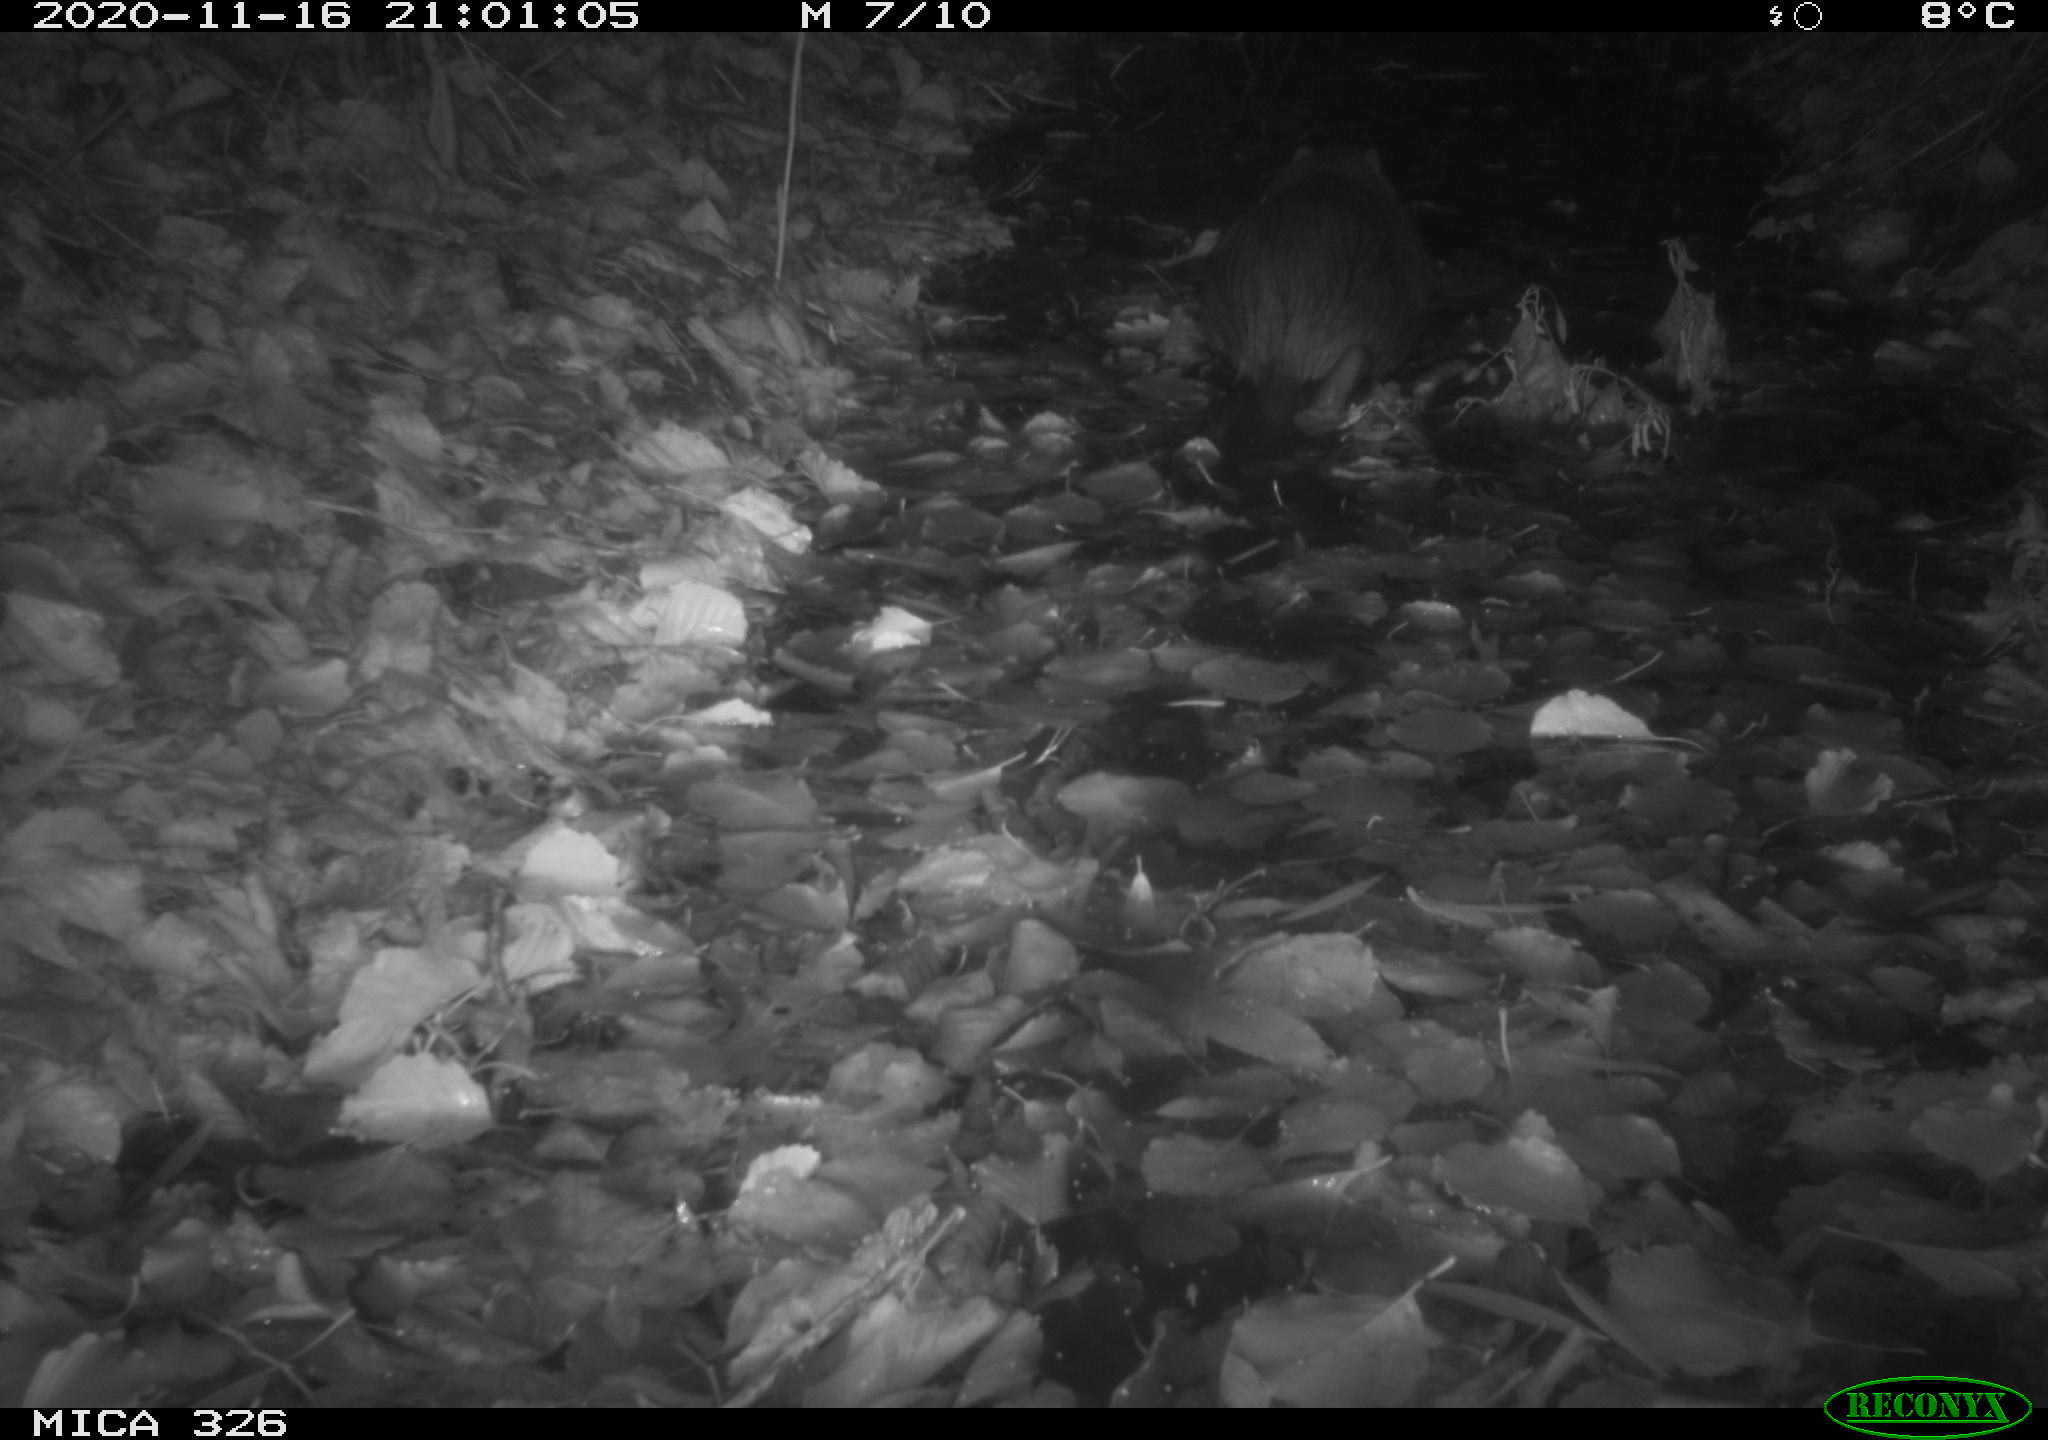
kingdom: Animalia
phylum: Chordata
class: Mammalia
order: Rodentia
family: Myocastoridae
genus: Myocastor
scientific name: Myocastor coypus
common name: Coypu
